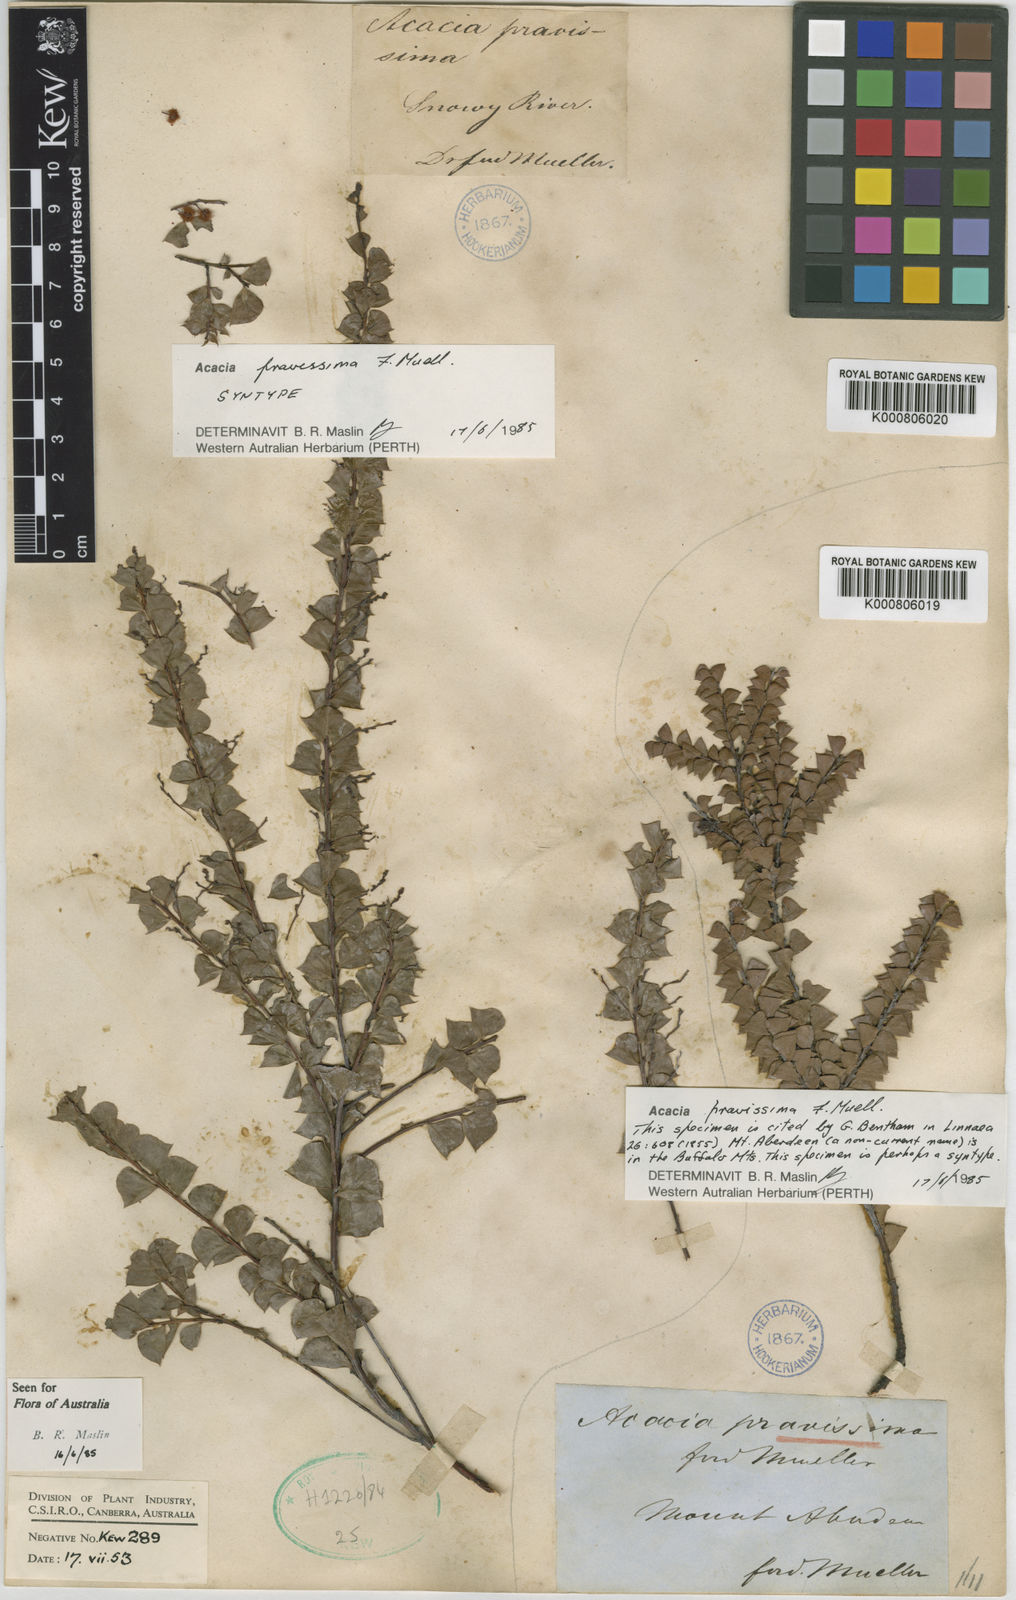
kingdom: Plantae
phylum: Tracheophyta
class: Magnoliopsida
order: Fabales
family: Fabaceae
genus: Acacia
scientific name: Acacia
